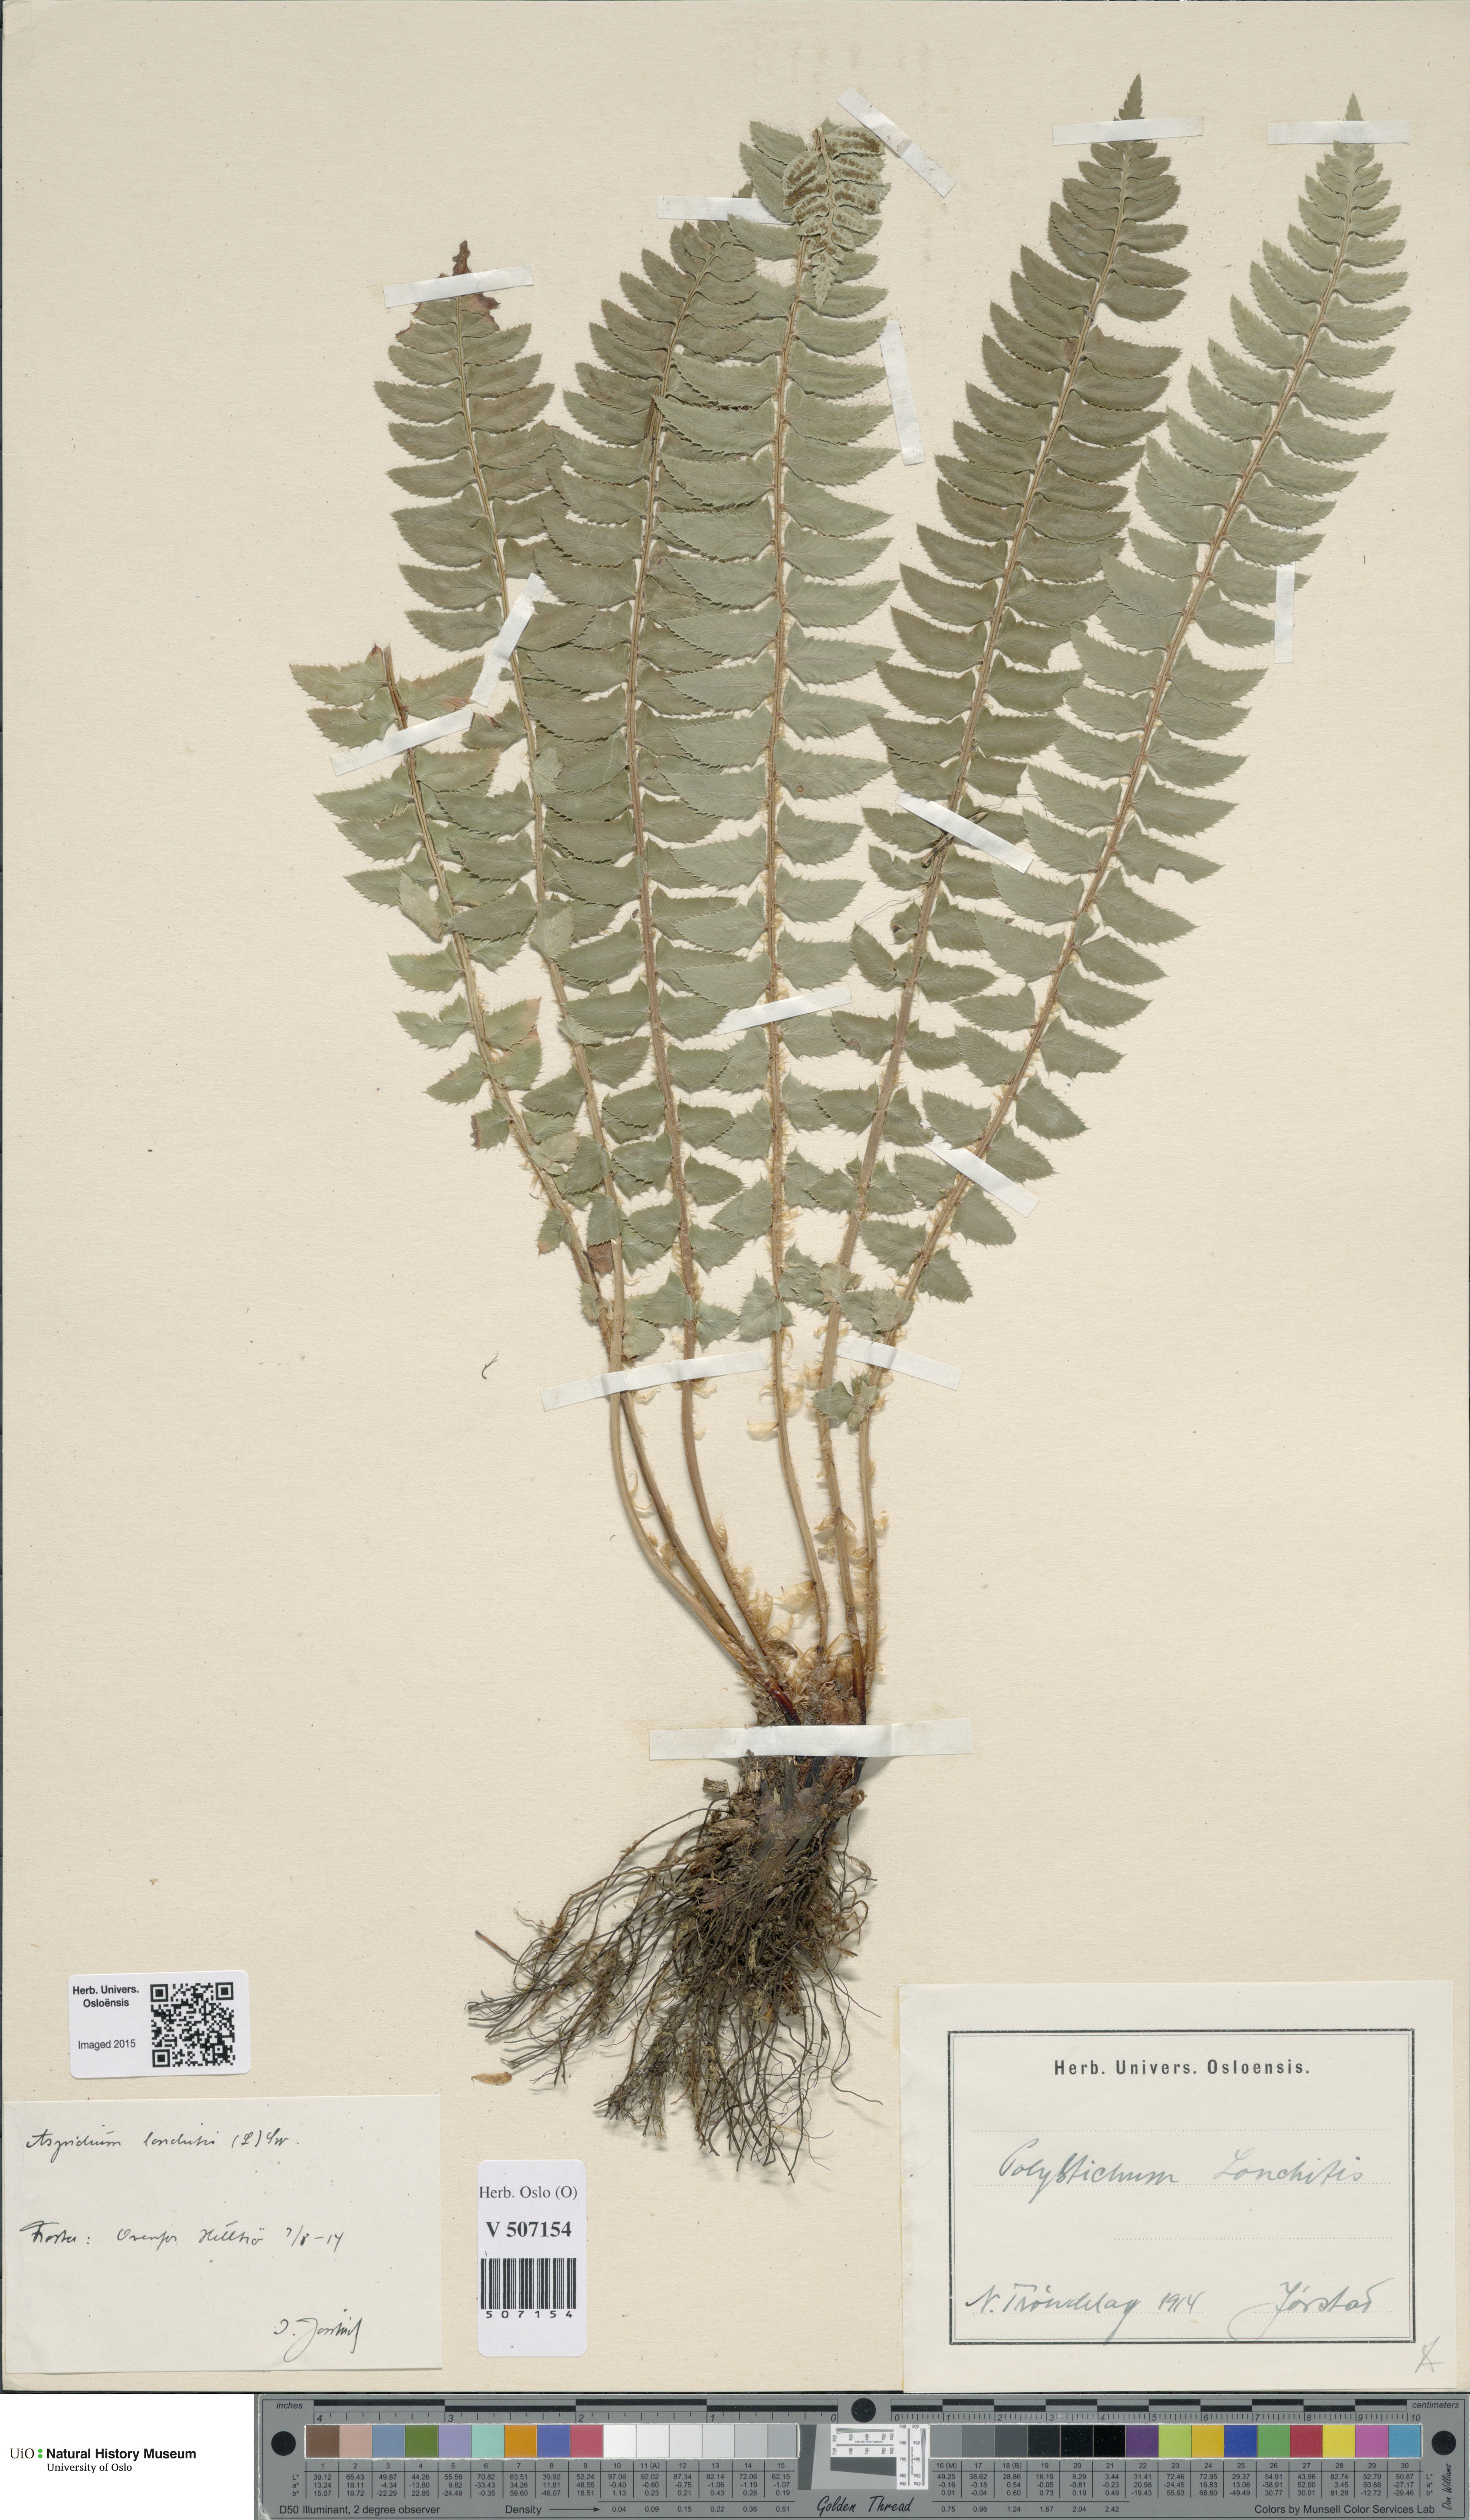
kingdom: Plantae
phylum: Tracheophyta
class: Polypodiopsida
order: Polypodiales
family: Dryopteridaceae
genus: Polystichum
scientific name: Polystichum lonchitis
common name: Holly fern
